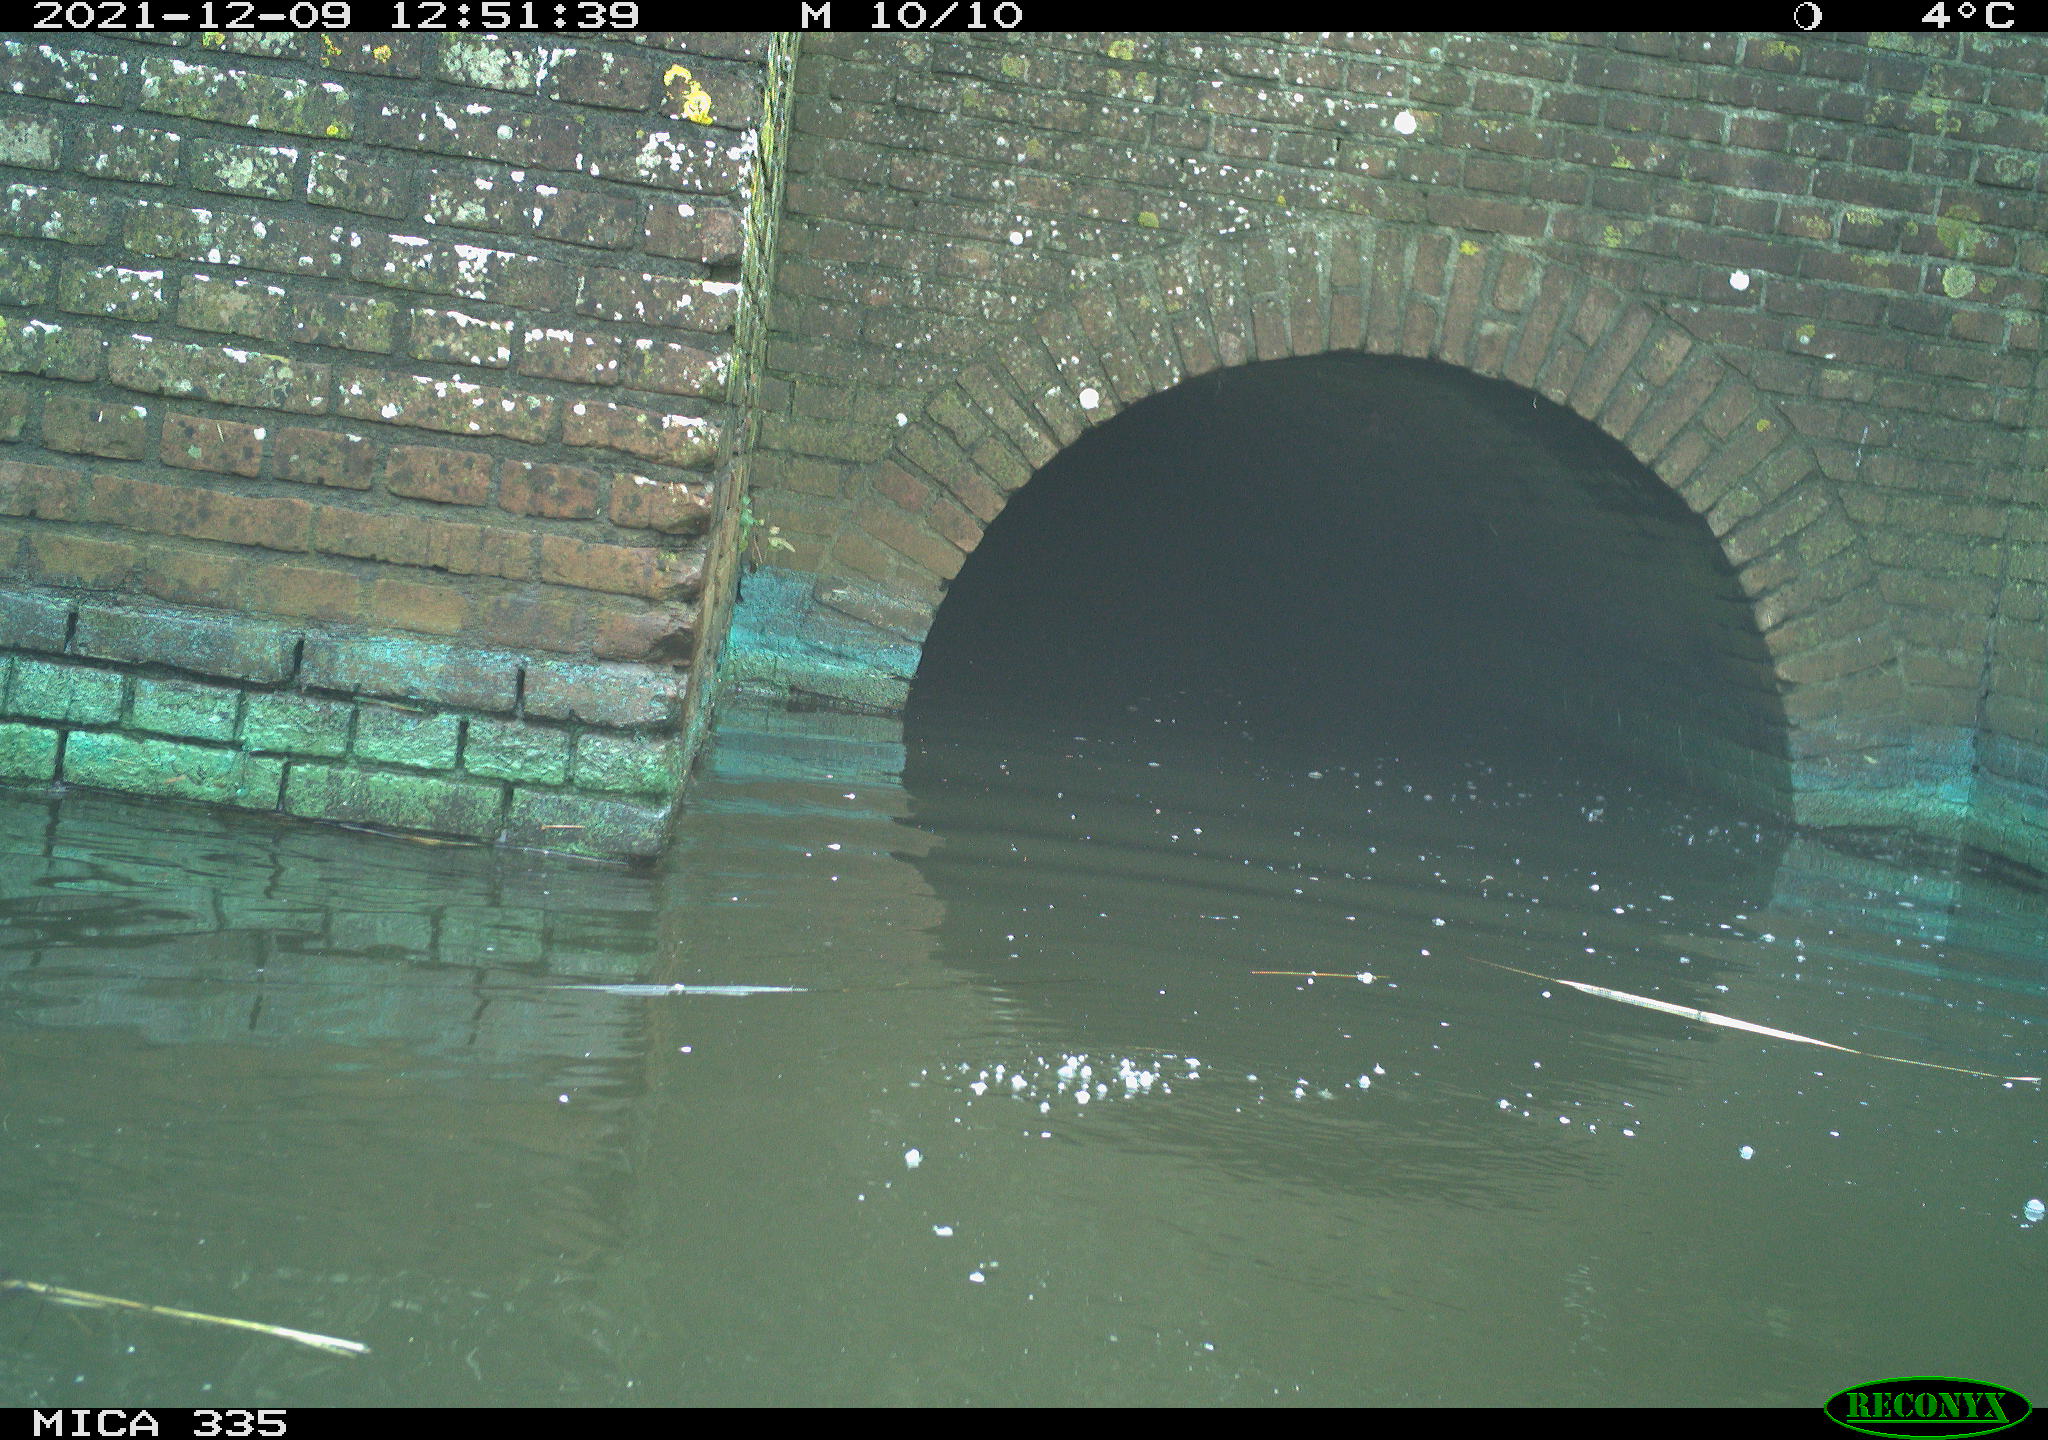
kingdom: Animalia
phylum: Chordata
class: Aves
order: Anseriformes
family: Anatidae
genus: Anas
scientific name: Anas platyrhynchos
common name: Mallard
